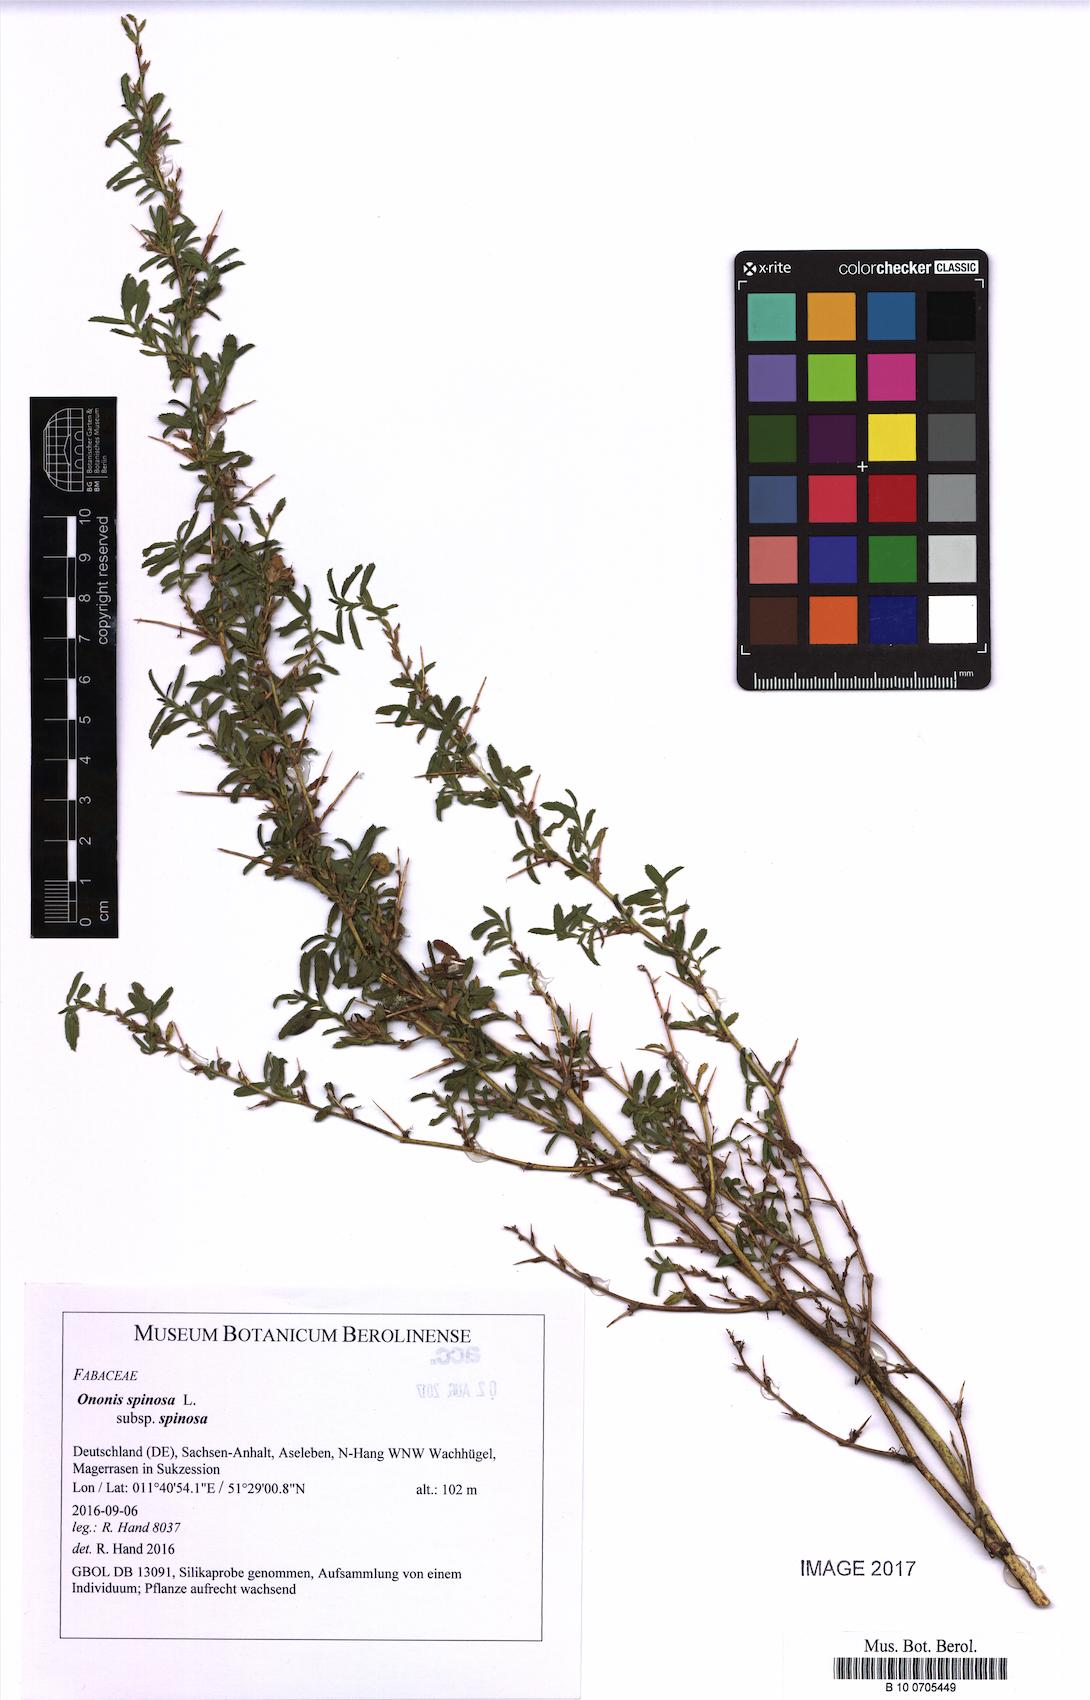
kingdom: Plantae
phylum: Tracheophyta
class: Magnoliopsida
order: Fabales
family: Fabaceae
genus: Ononis
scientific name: Ononis spinosa
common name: Spiny restharrow
